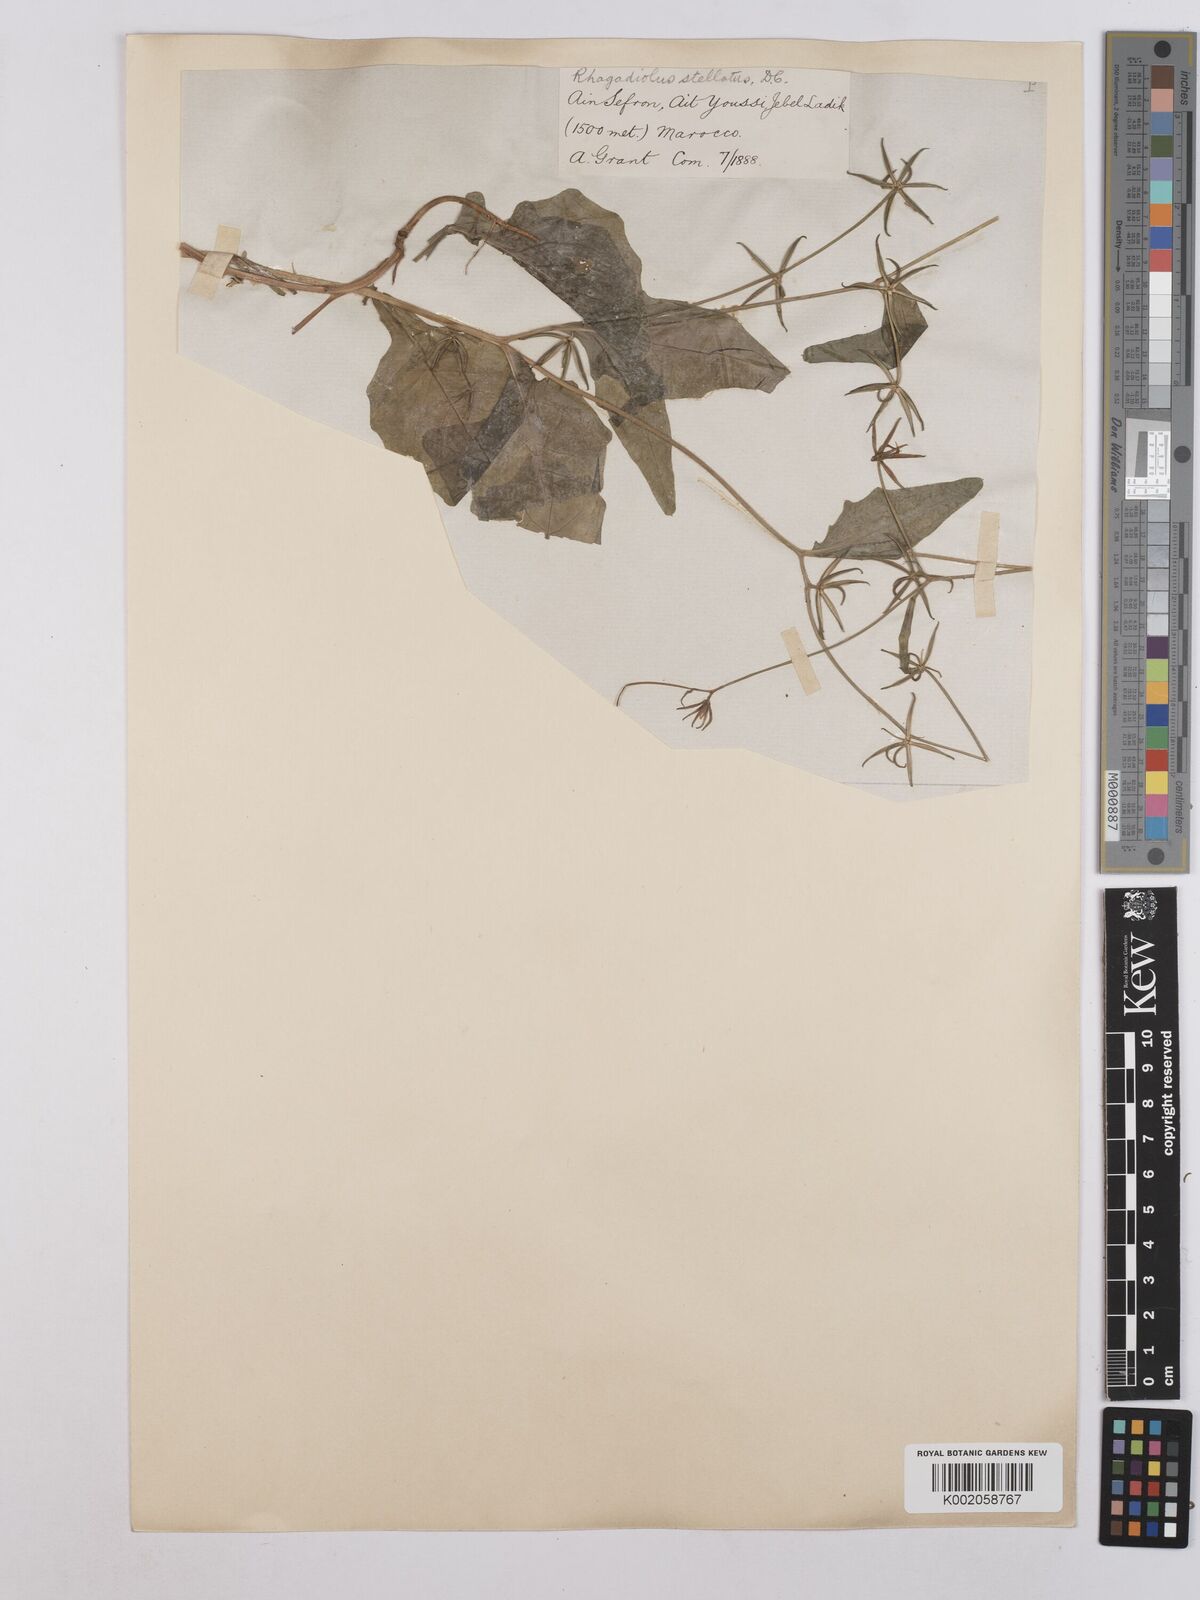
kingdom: Plantae
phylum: Tracheophyta
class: Magnoliopsida
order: Asterales
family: Asteraceae
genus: Rhagadiolus
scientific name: Rhagadiolus edulis
